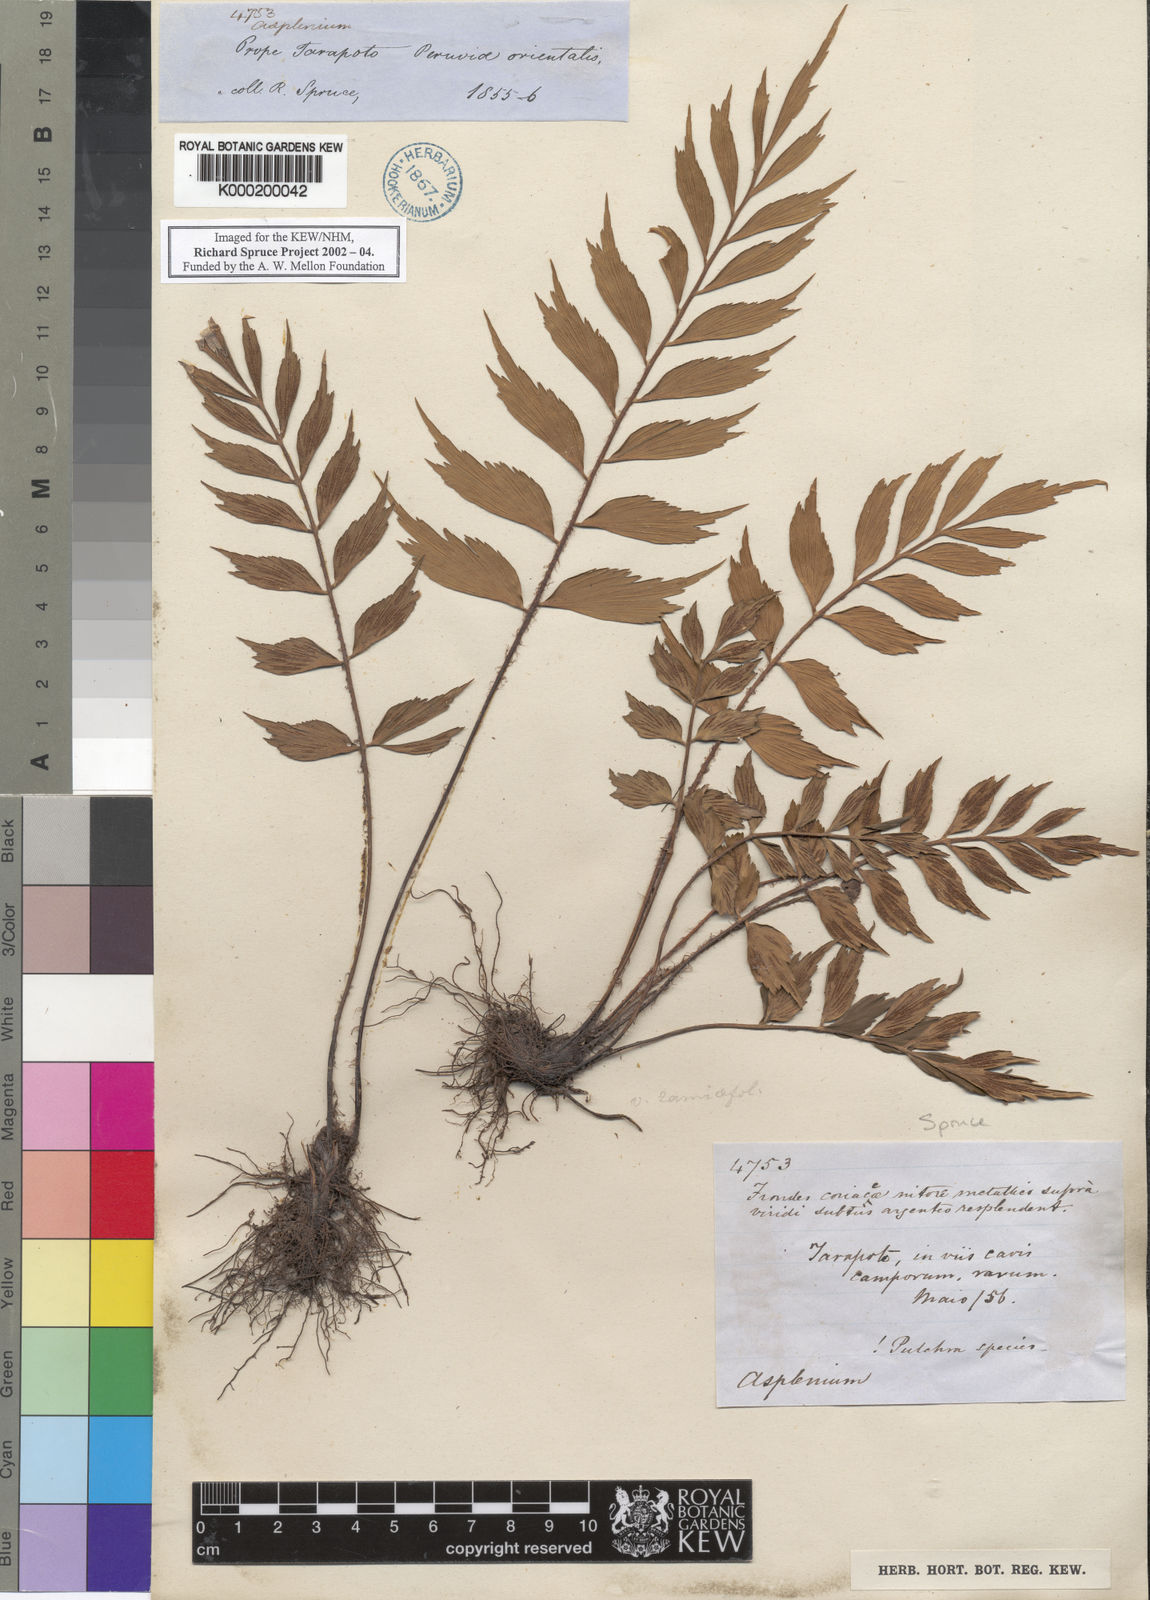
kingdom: Plantae
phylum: Tracheophyta
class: Polypodiopsida
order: Polypodiales
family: Aspleniaceae
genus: Asplenium
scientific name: Asplenium
